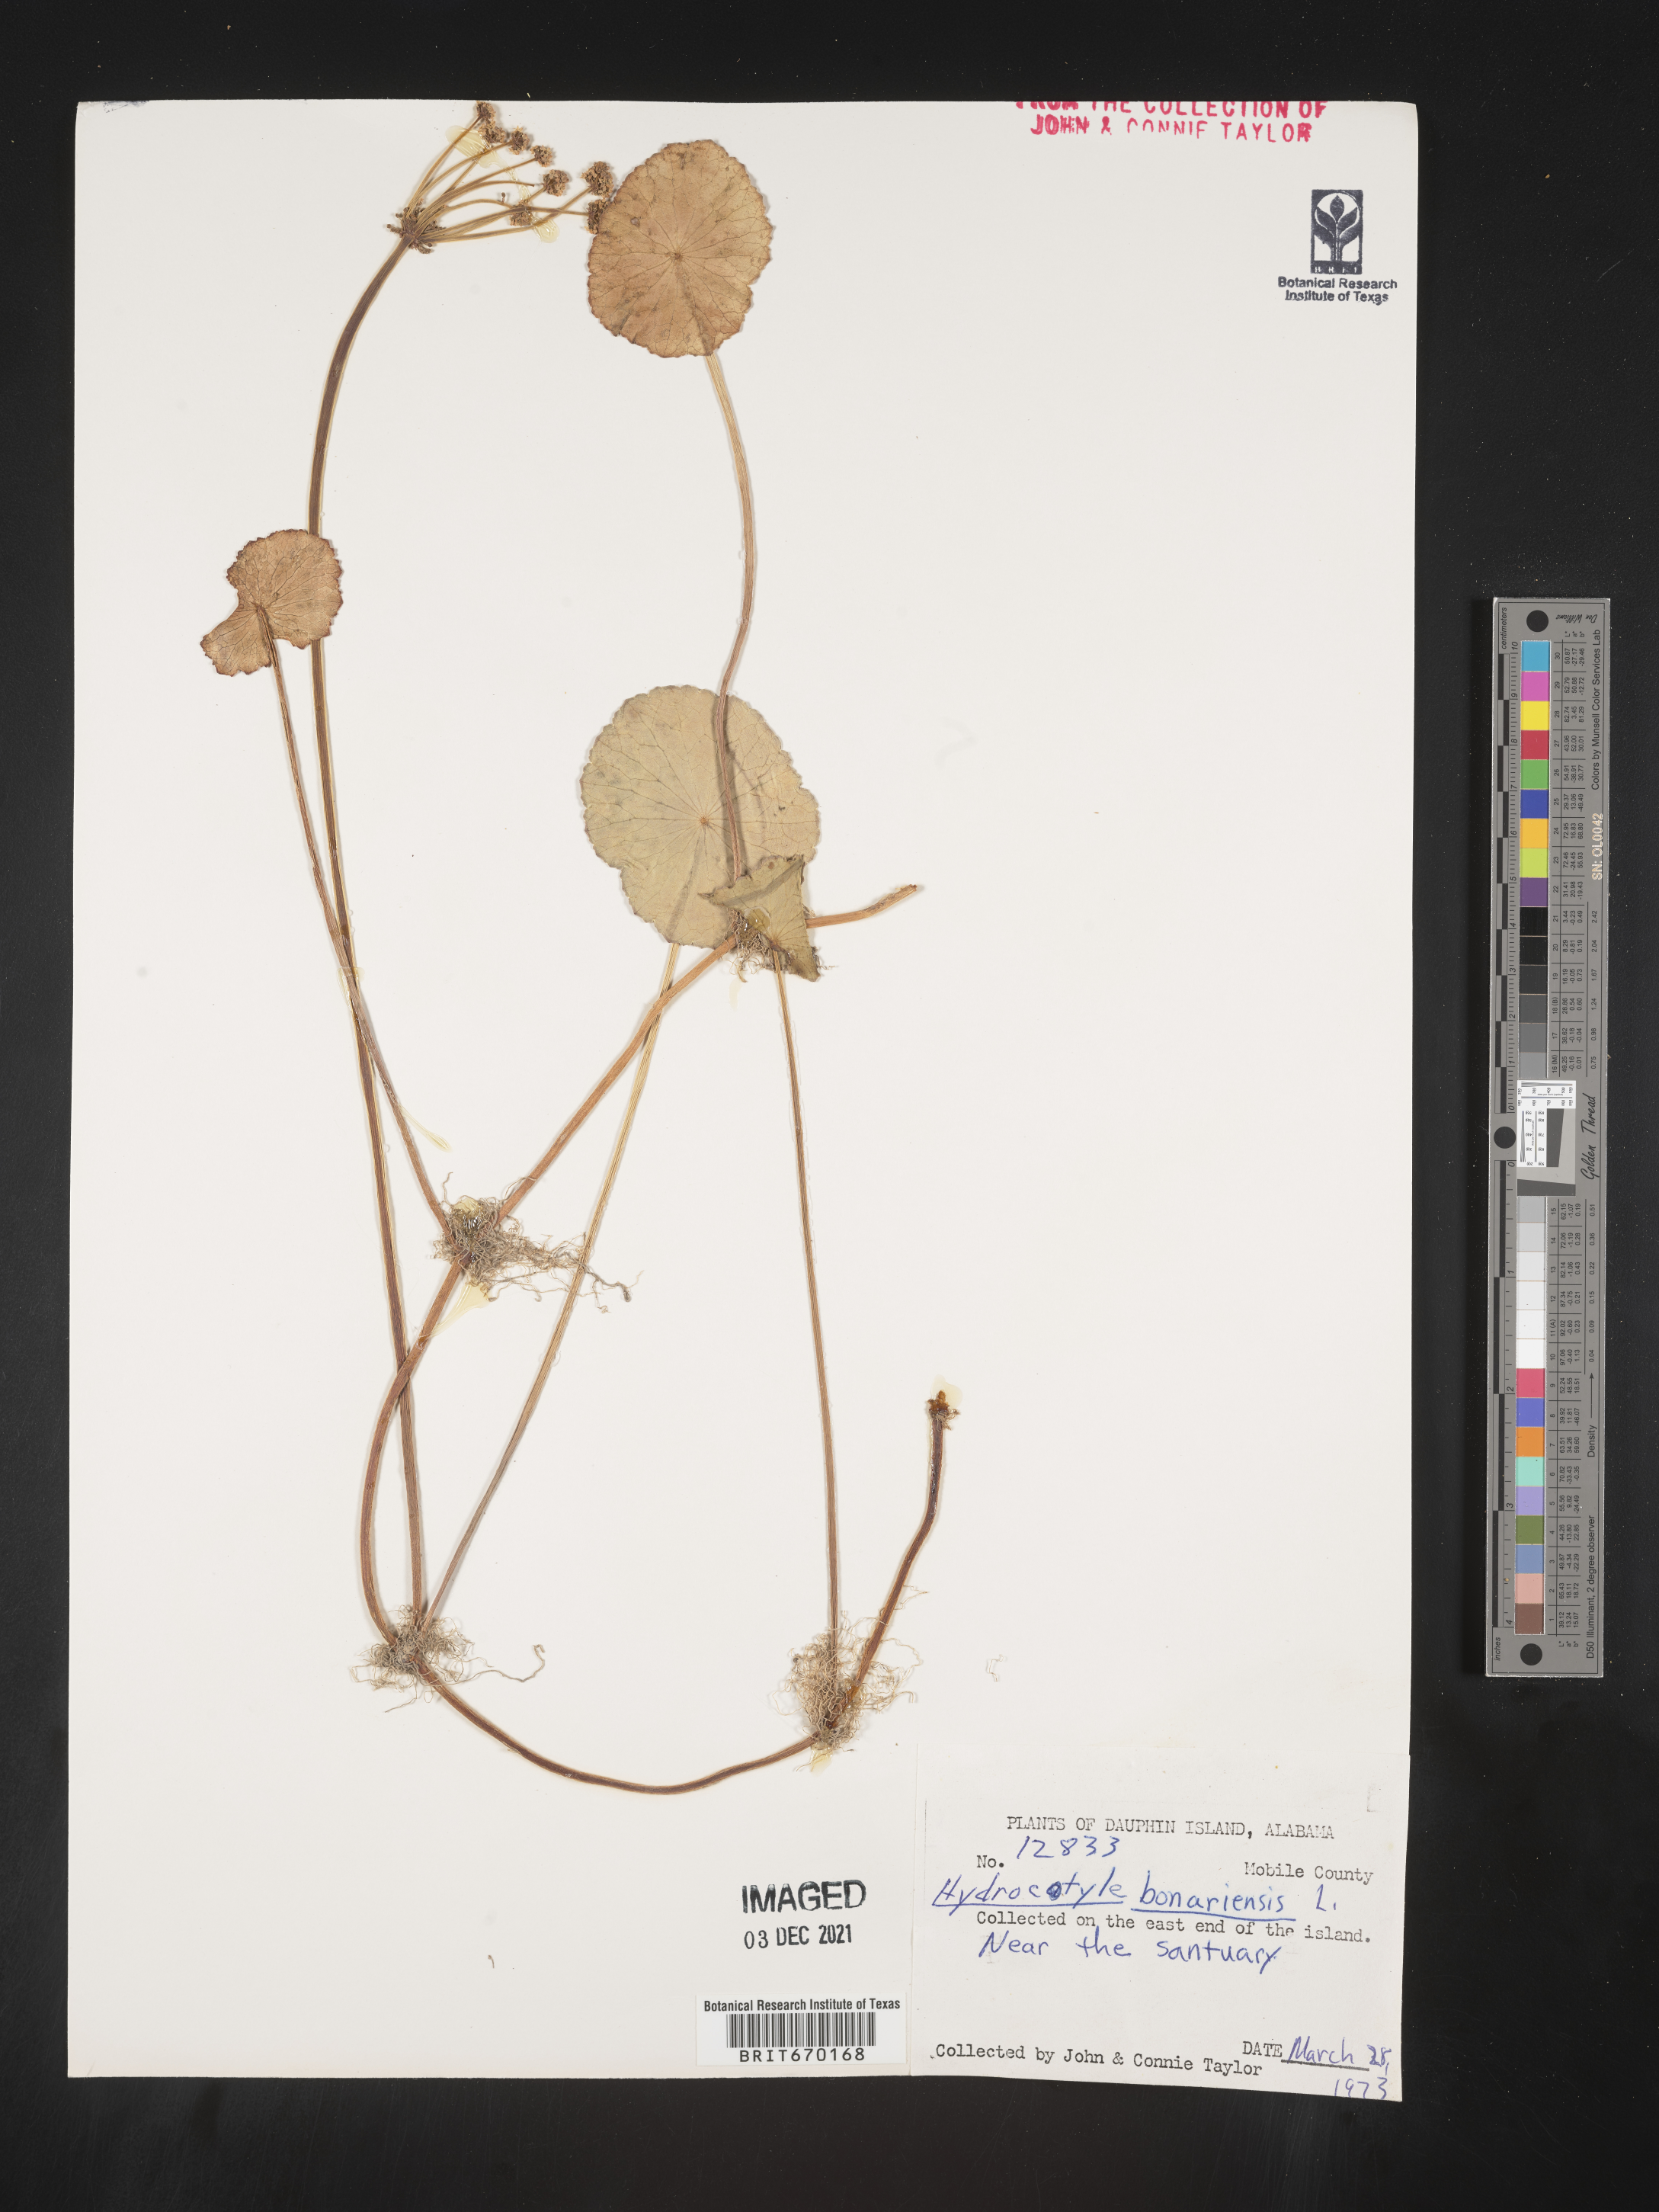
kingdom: Plantae
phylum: Tracheophyta
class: Magnoliopsida
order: Apiales
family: Araliaceae
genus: Hydrocotyle
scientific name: Hydrocotyle bonariensis
